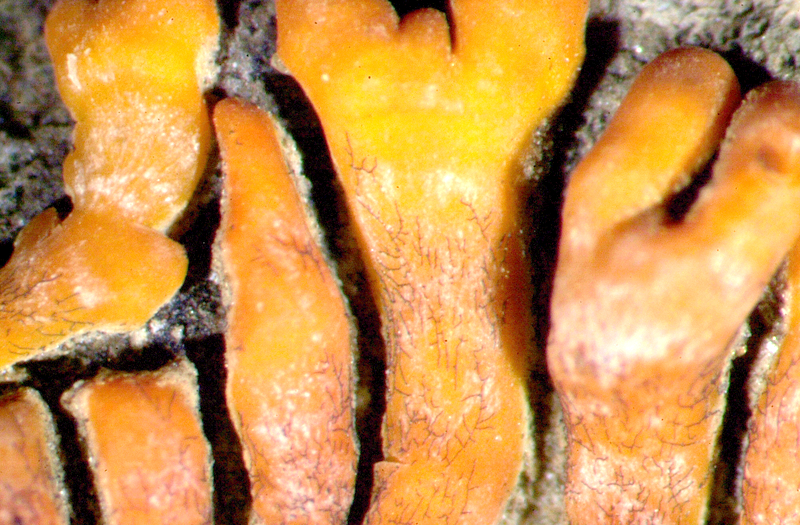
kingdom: Fungi
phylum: Ascomycota
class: Lecanoromycetes
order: Teloschistales
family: Teloschistaceae
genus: Stellarangia
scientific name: Stellarangia elegantissima
